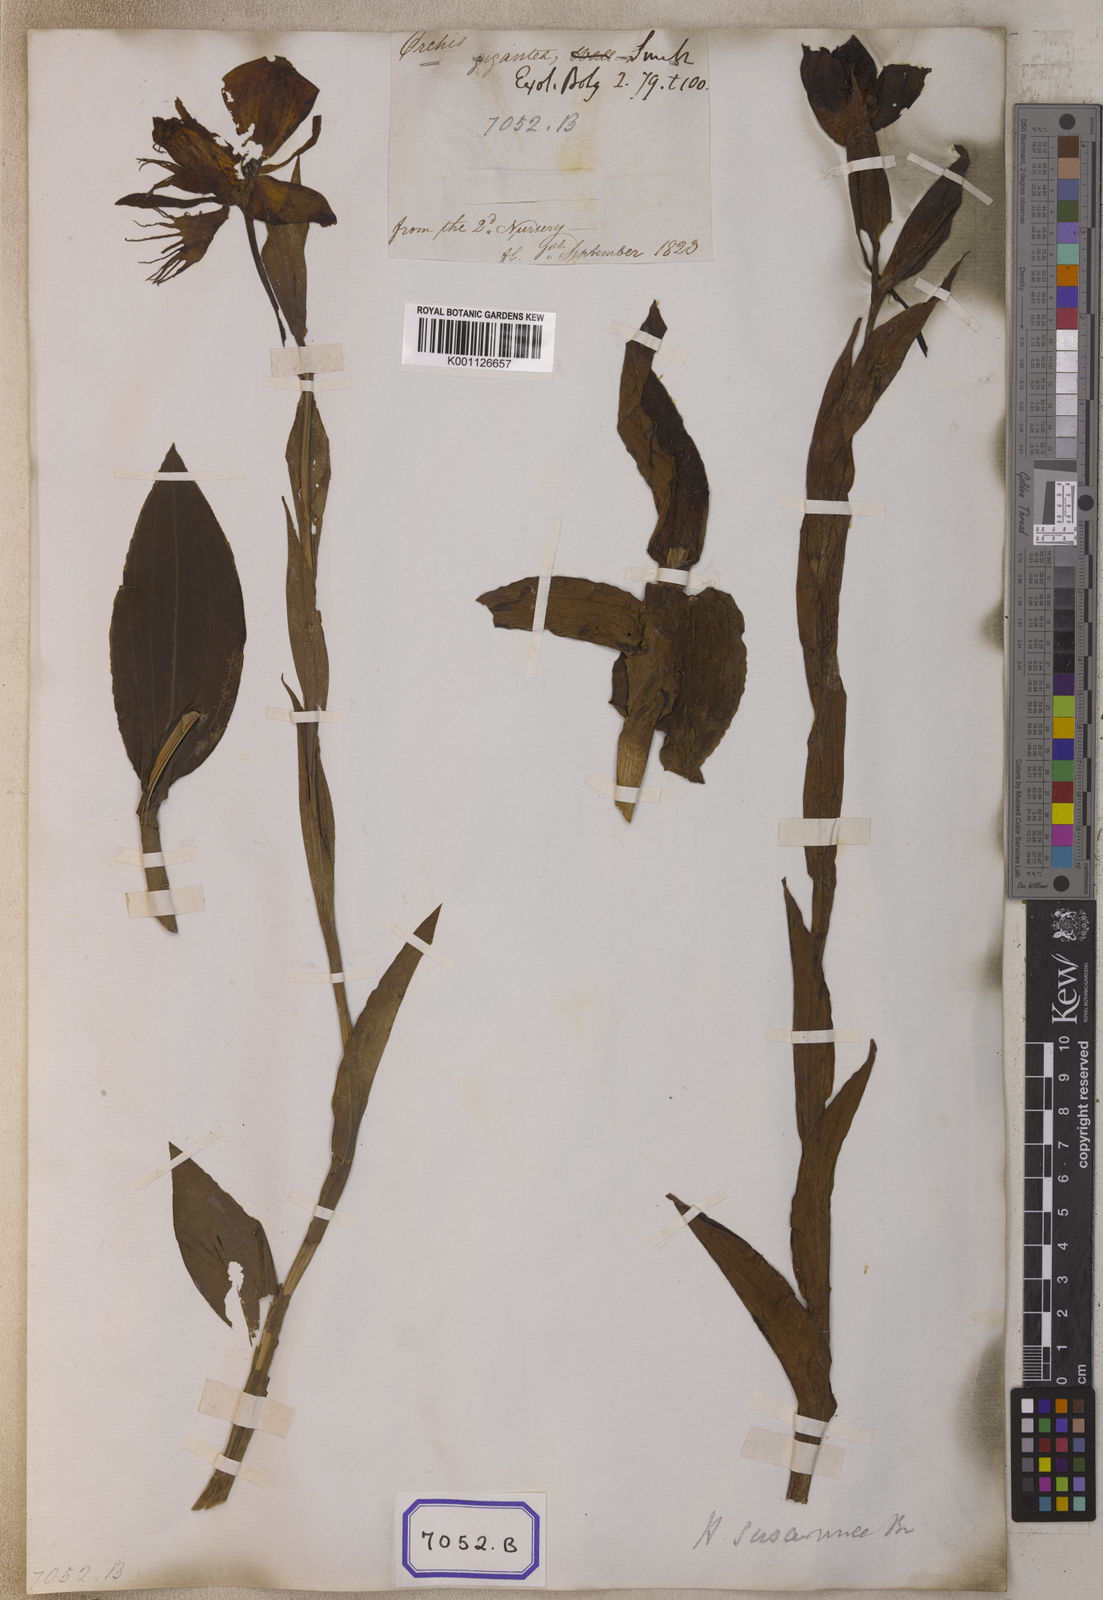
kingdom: Plantae
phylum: Tracheophyta
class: Liliopsida
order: Asparagales
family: Orchidaceae
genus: Platanthera
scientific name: Platanthera
